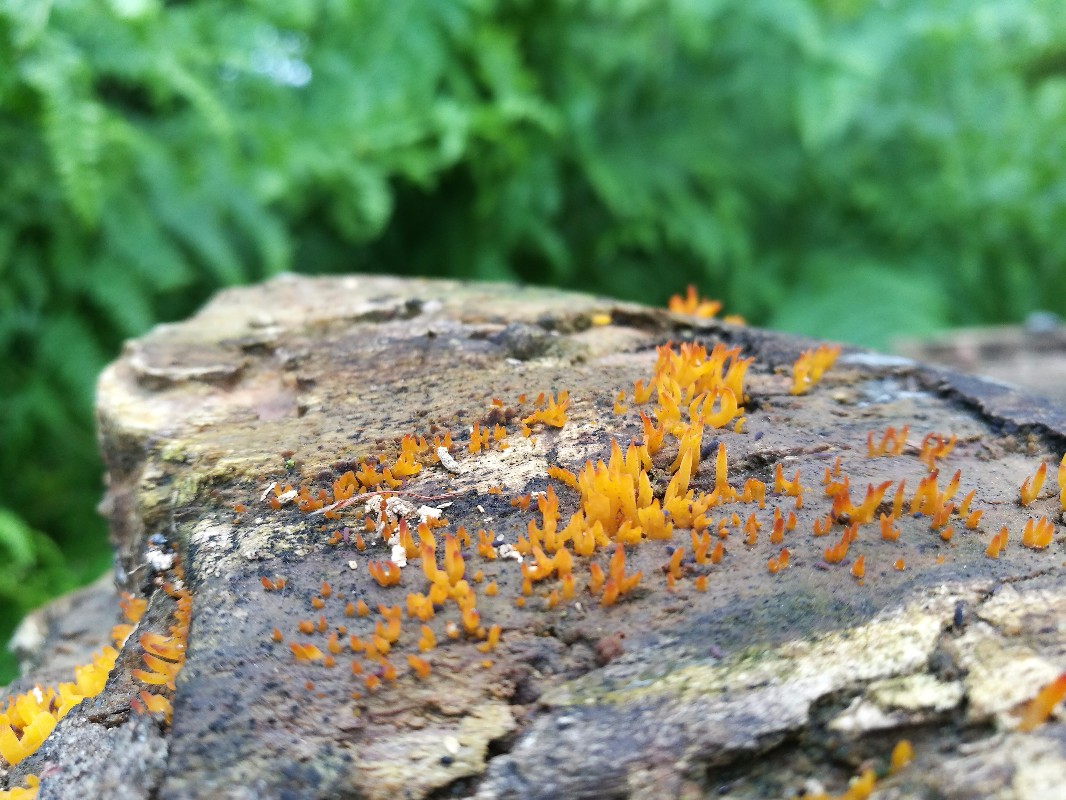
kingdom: Fungi
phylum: Basidiomycota
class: Dacrymycetes
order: Dacrymycetales
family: Dacrymycetaceae
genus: Calocera
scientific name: Calocera cornea
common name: liden guldgaffel
